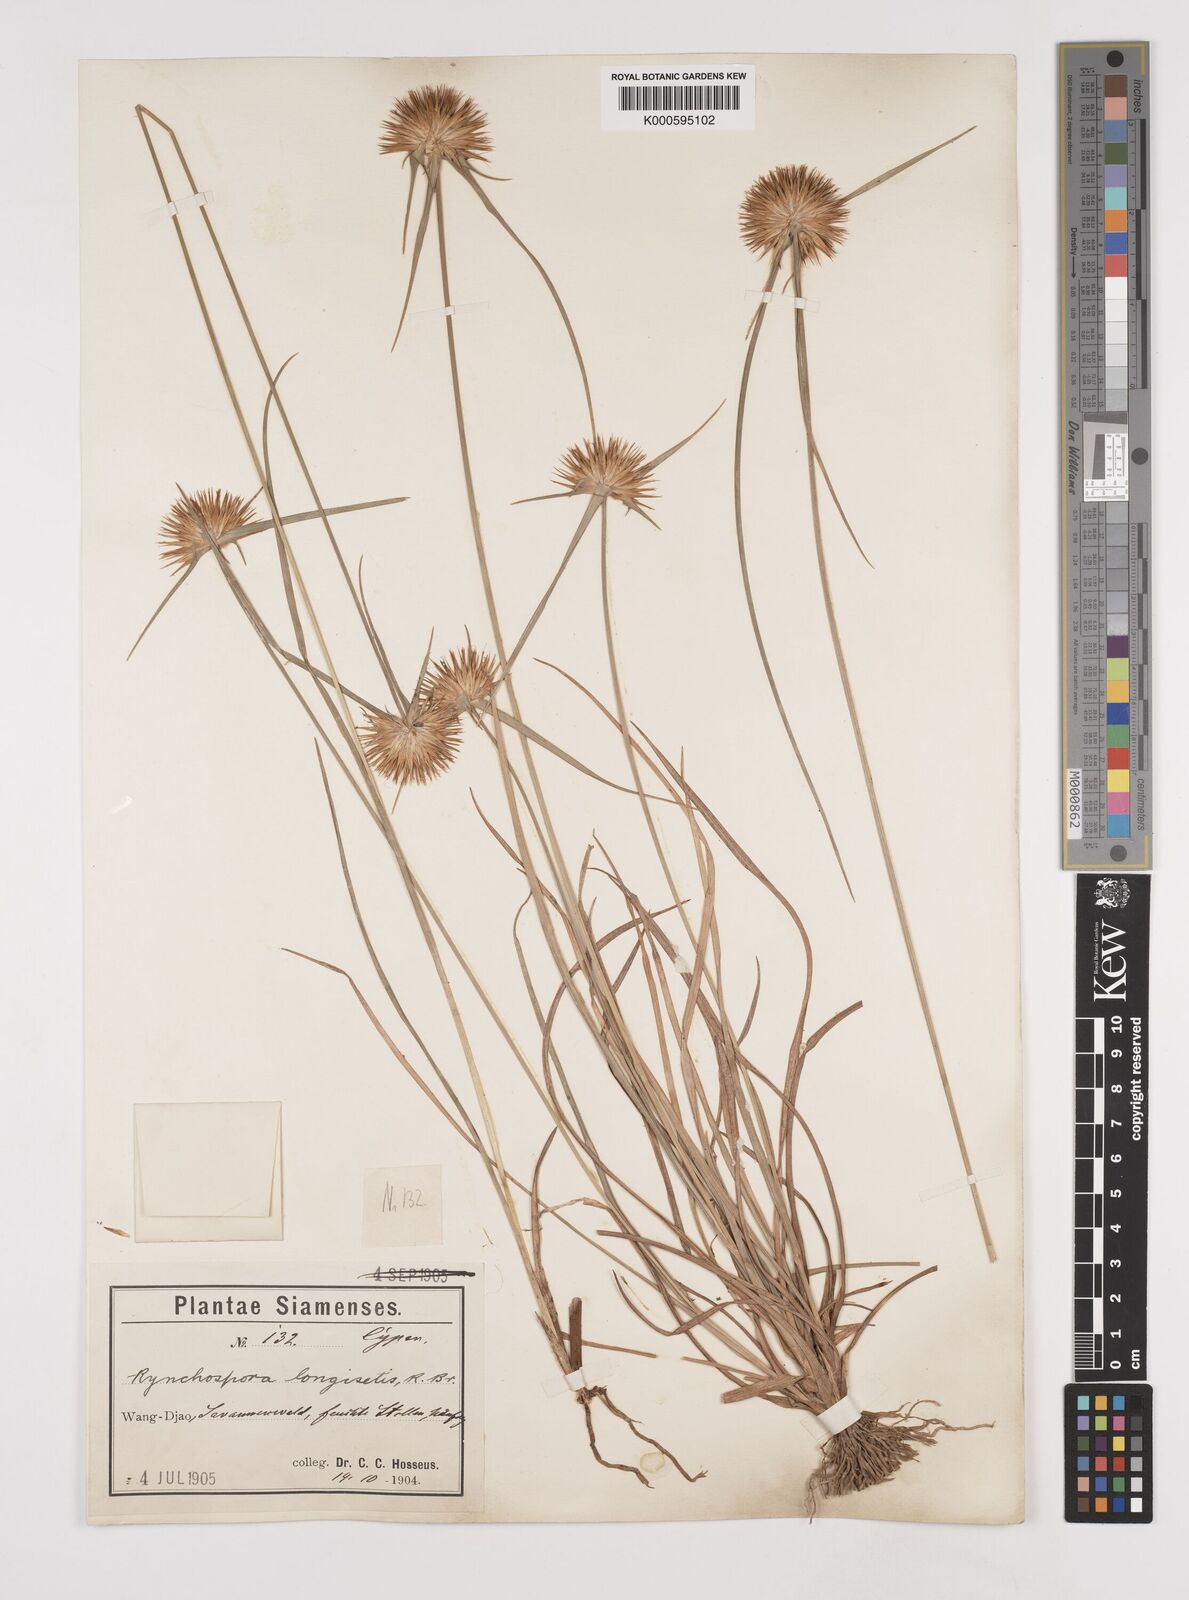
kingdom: Plantae
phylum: Tracheophyta
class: Liliopsida
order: Poales
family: Cyperaceae
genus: Rhynchospora
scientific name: Rhynchospora longisetis
